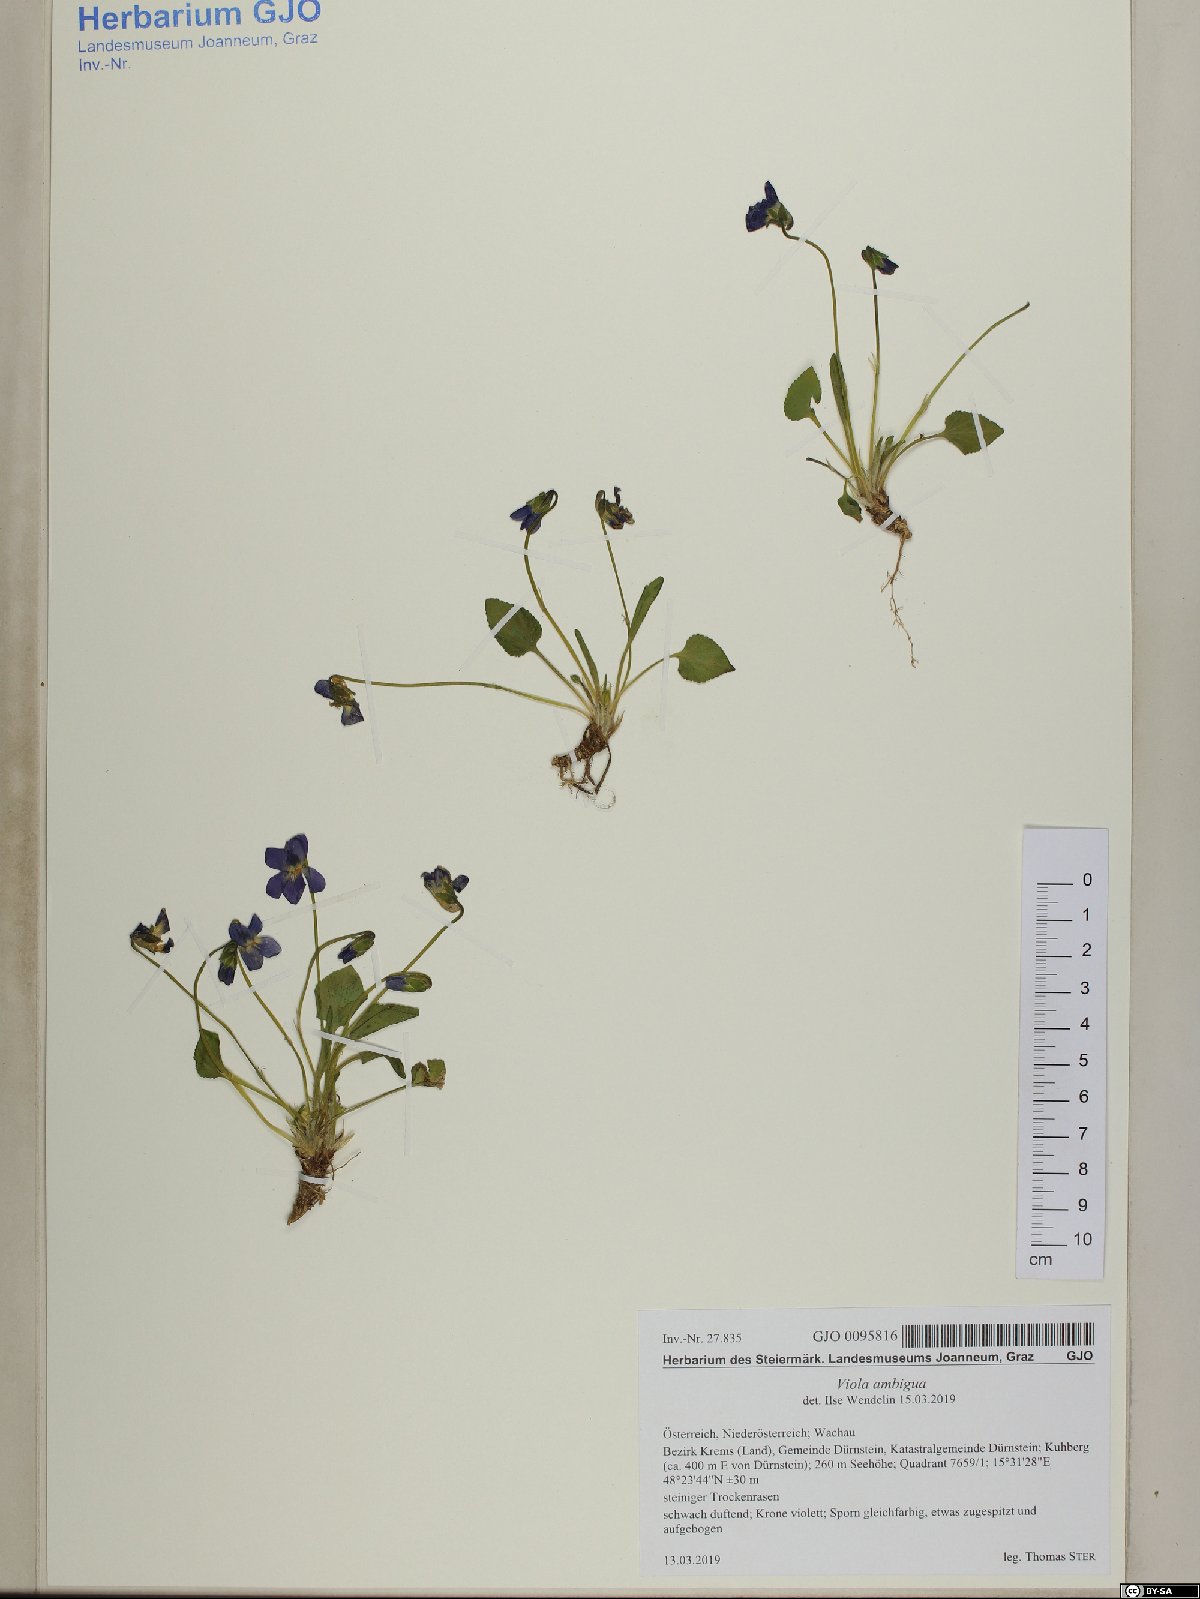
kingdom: Plantae
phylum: Tracheophyta
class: Magnoliopsida
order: Malpighiales
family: Violaceae
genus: Viola
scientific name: Viola ambigua
